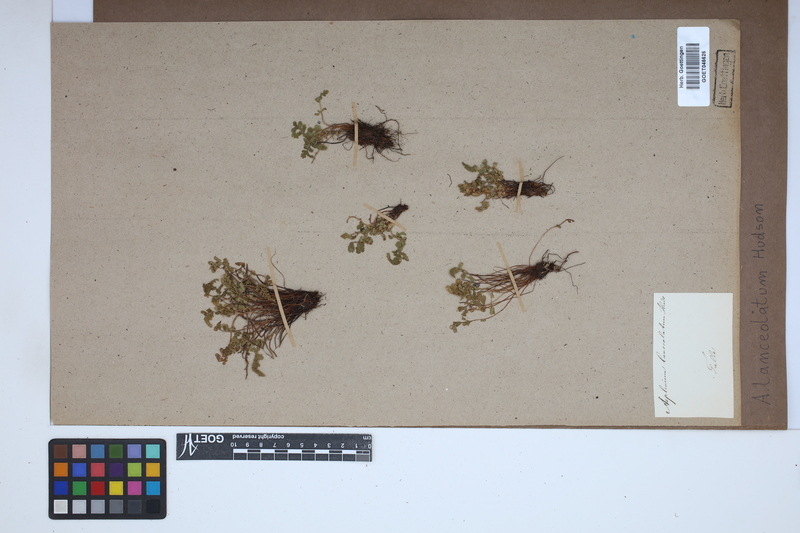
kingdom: Plantae
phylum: Tracheophyta
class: Polypodiopsida
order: Polypodiales
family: Aspleniaceae
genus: Asplenium
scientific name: Asplenium obovatum
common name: Lanceolate spleenwort
